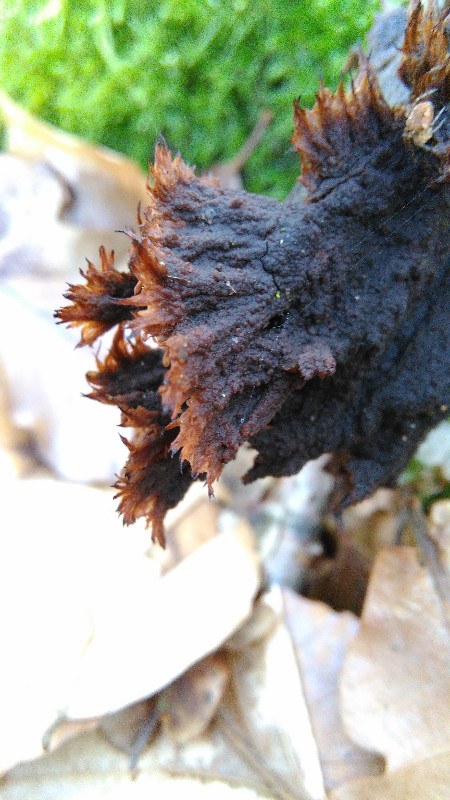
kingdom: Fungi
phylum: Basidiomycota
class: Agaricomycetes
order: Thelephorales
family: Thelephoraceae
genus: Thelephora
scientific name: Thelephora
